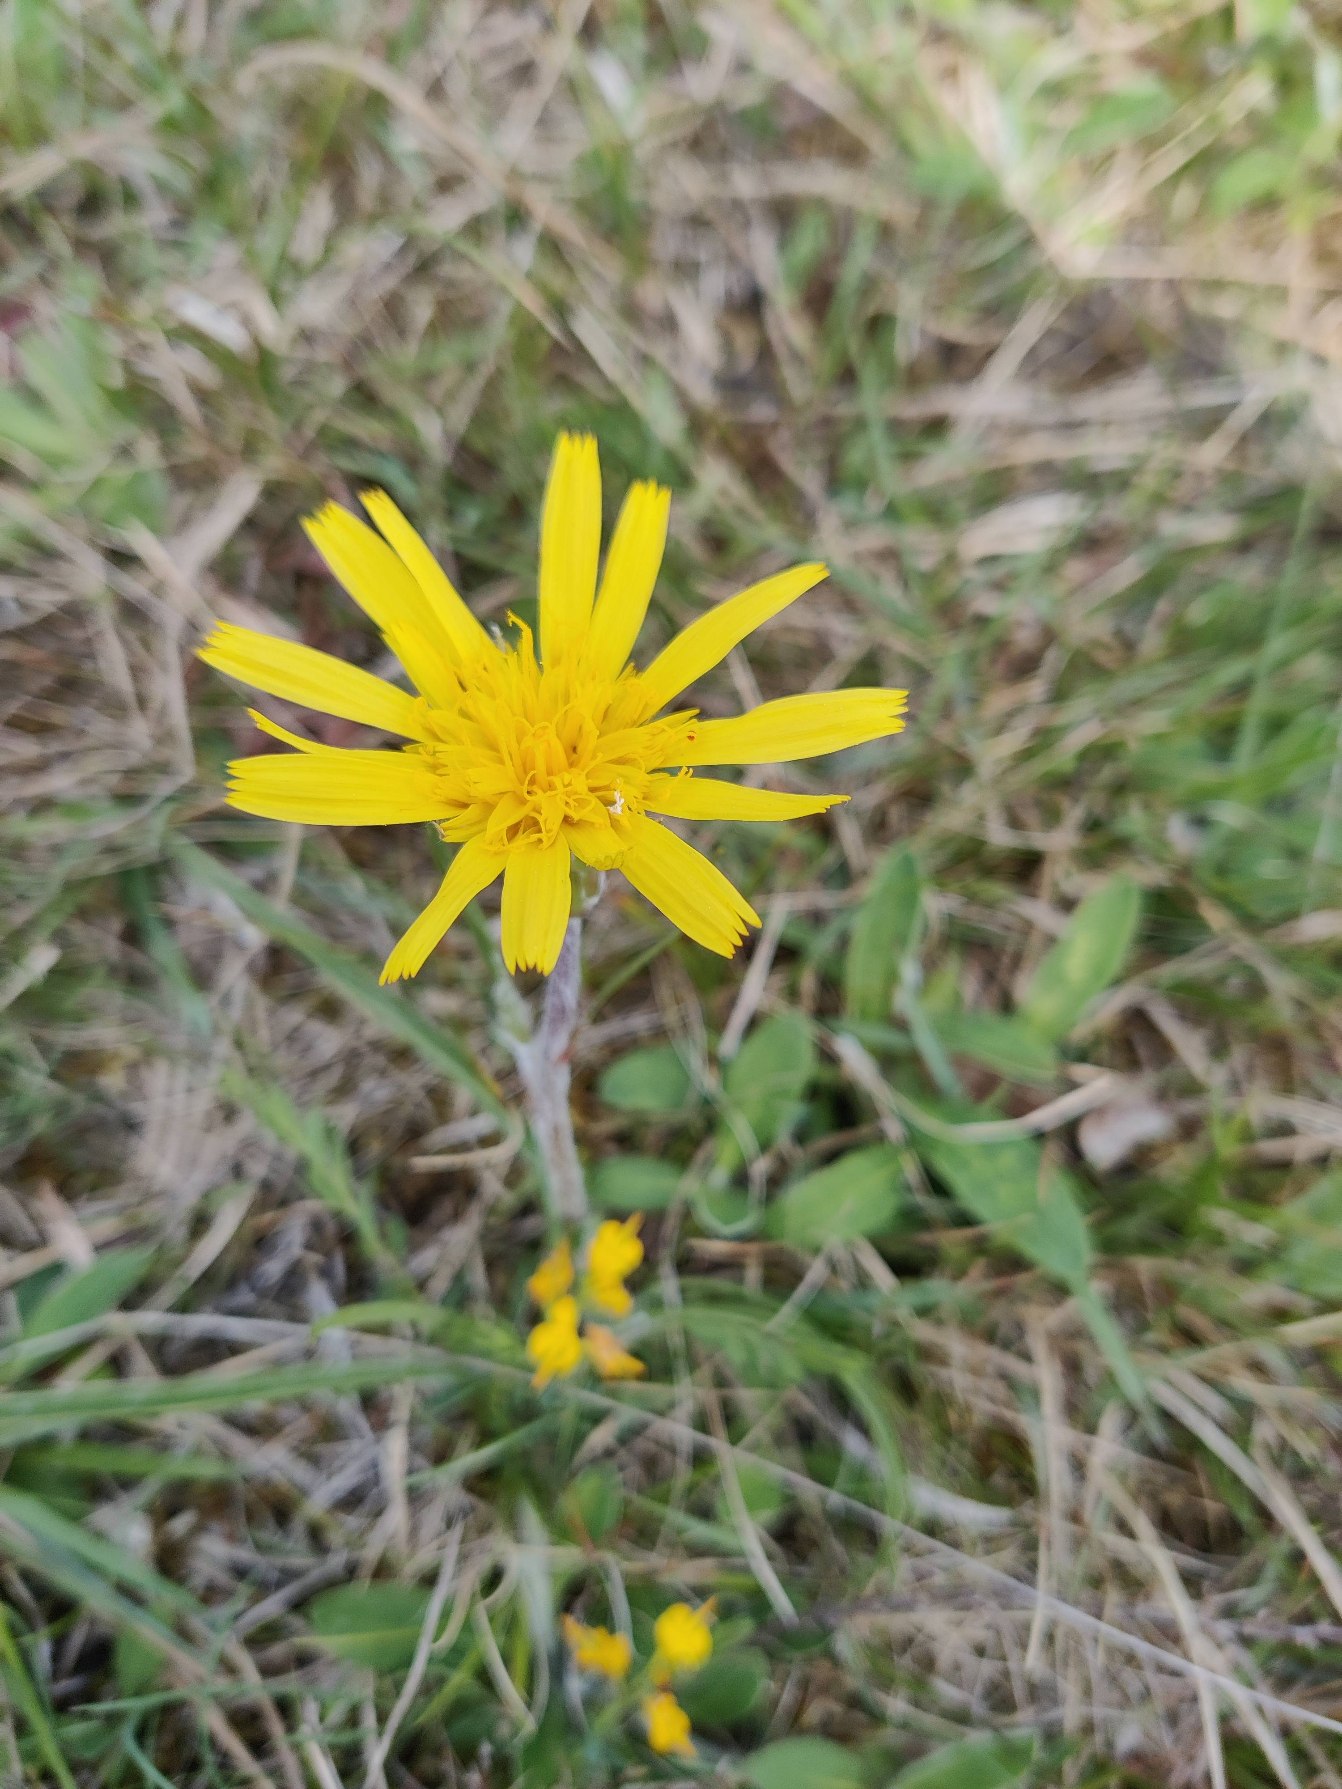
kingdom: Plantae
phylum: Tracheophyta
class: Magnoliopsida
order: Asterales
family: Asteraceae
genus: Scorzonera
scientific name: Scorzonera humilis
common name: Lav skorsoner
